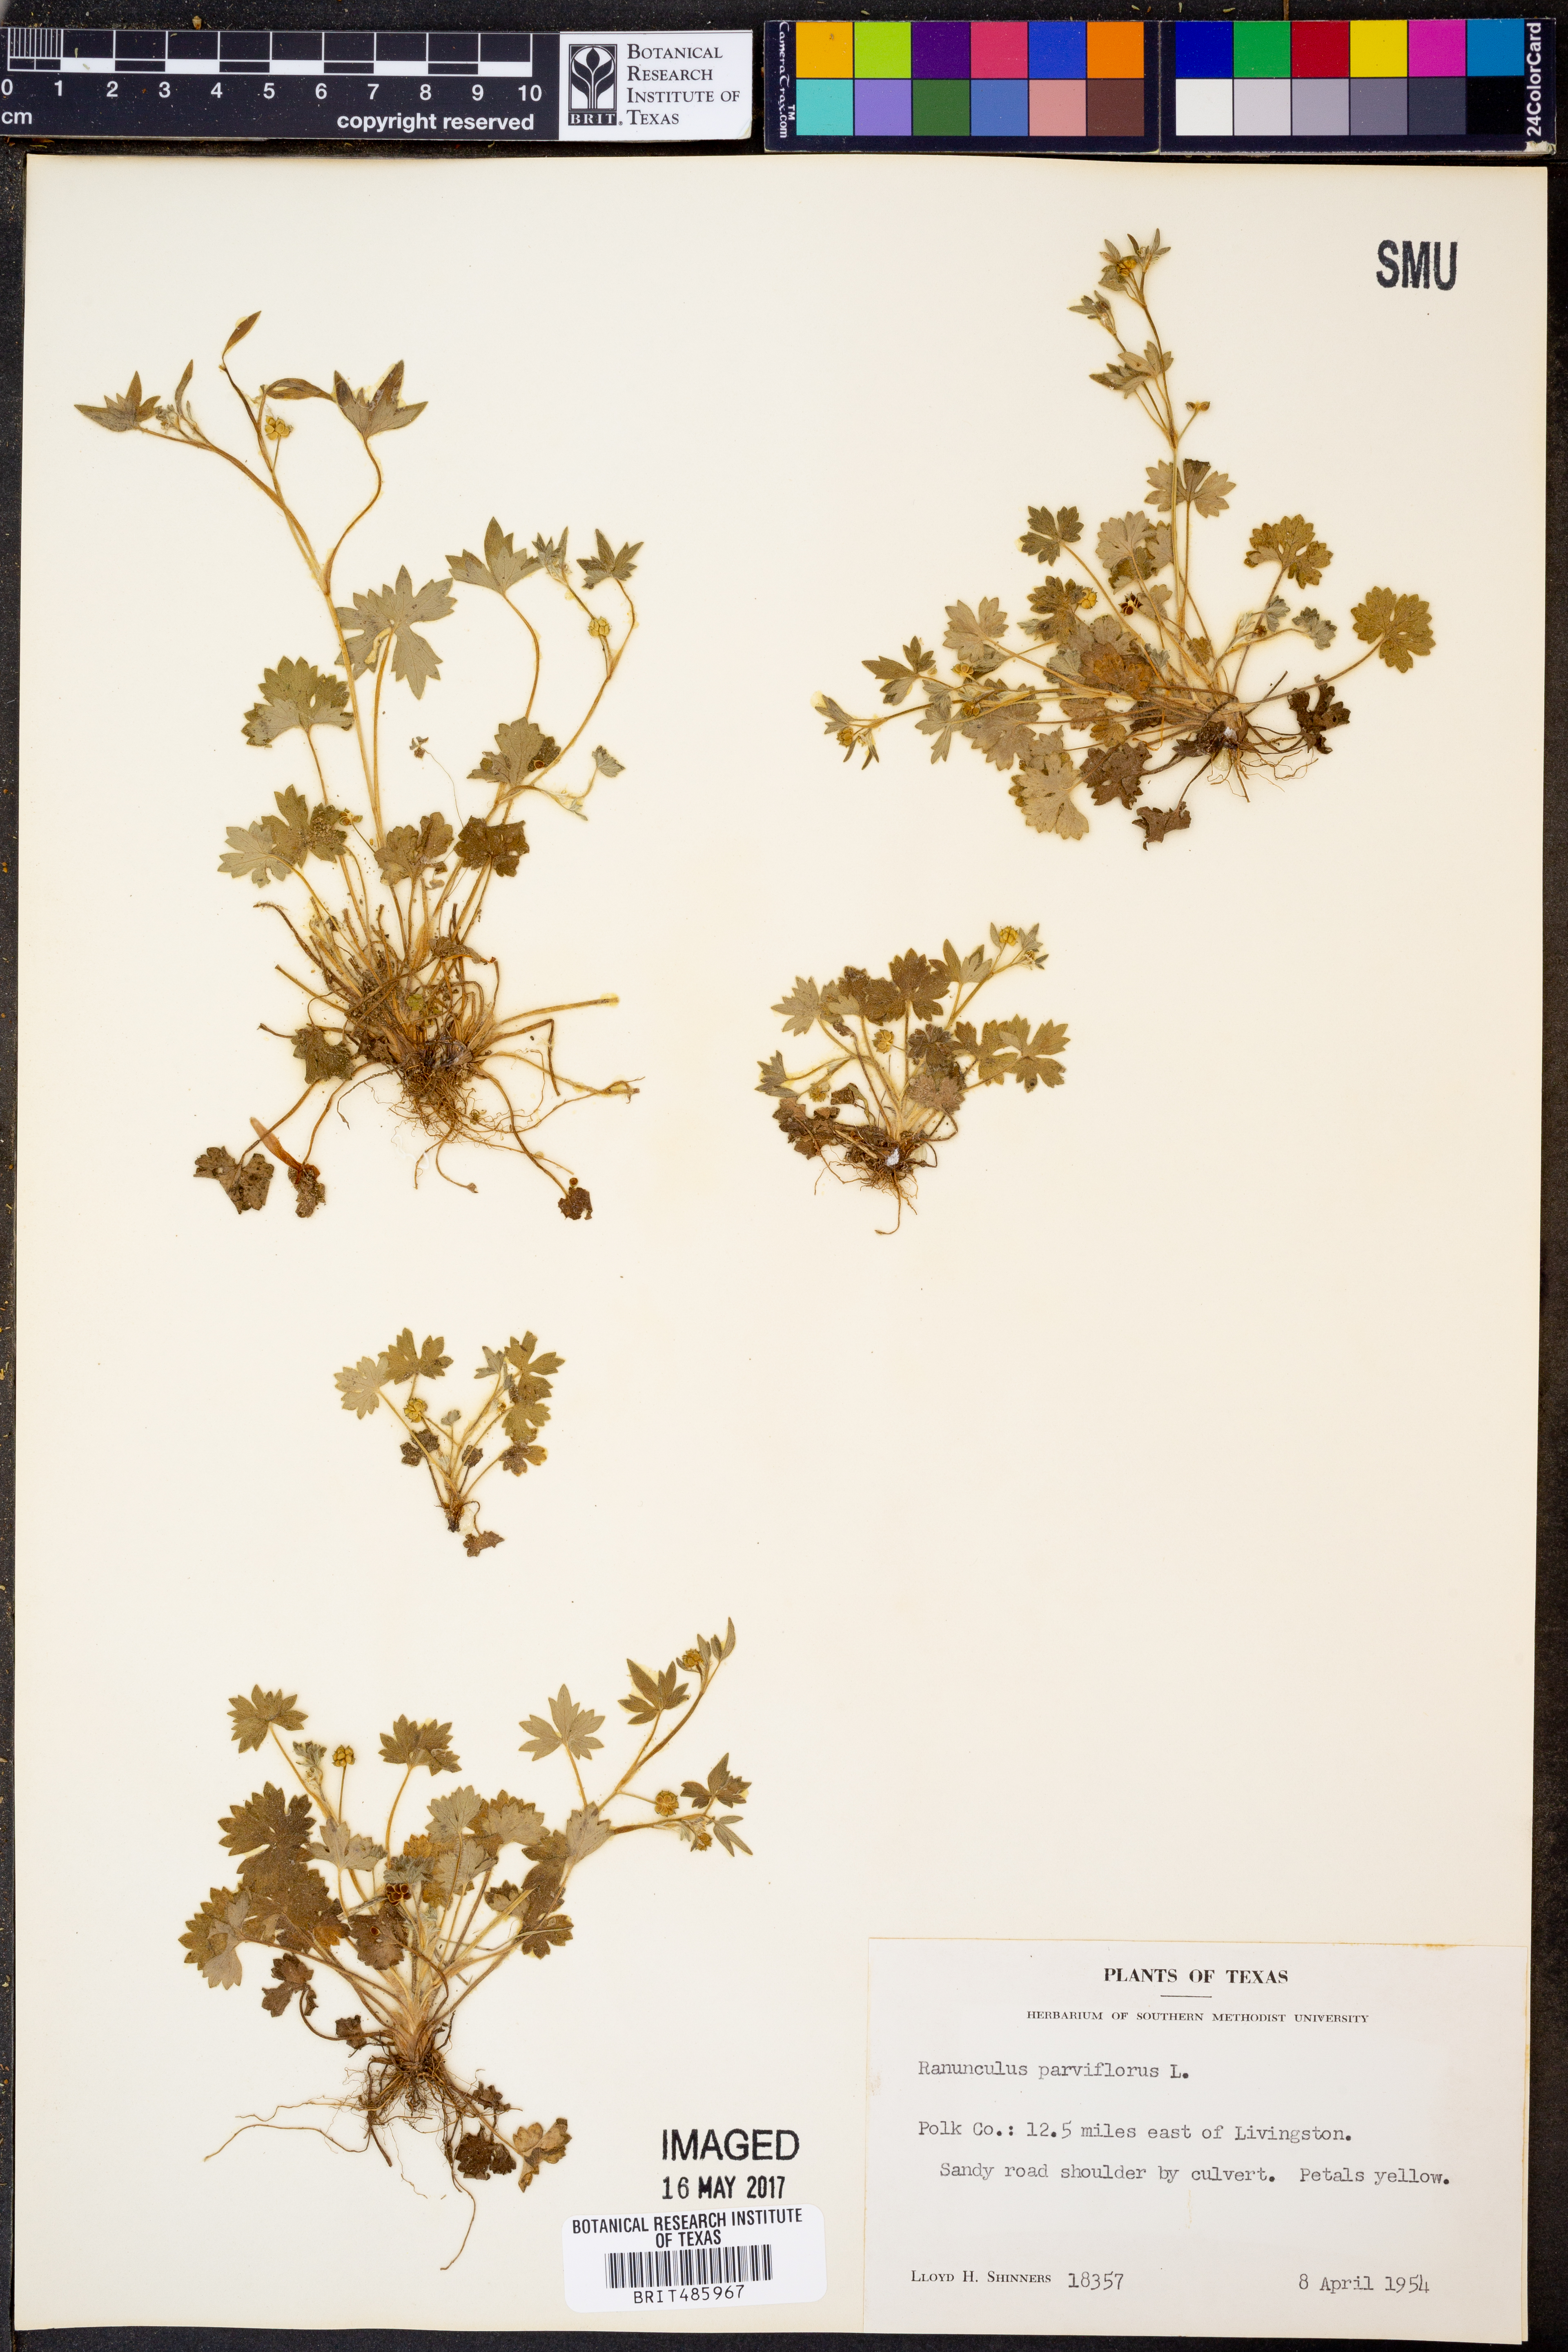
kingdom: Plantae
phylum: Tracheophyta
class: Magnoliopsida
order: Ranunculales
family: Ranunculaceae
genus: Ranunculus
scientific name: Ranunculus parviflorus
